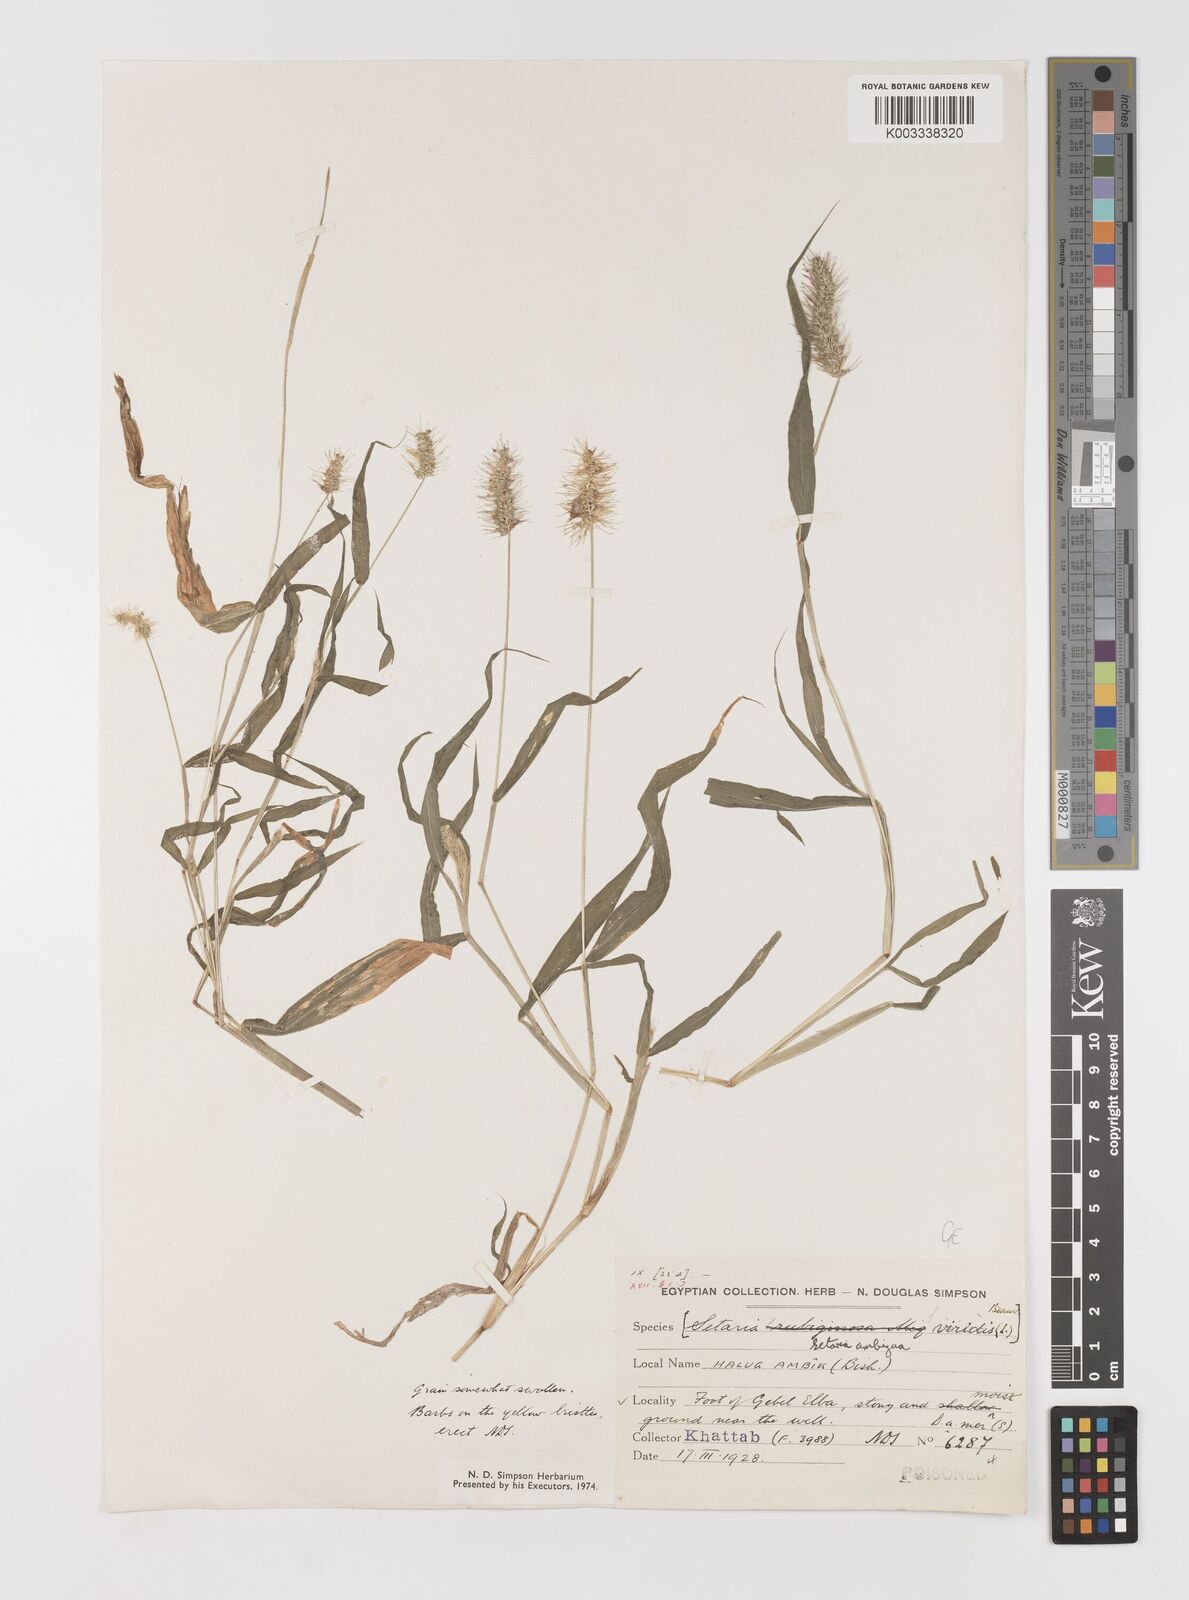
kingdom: Plantae
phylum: Tracheophyta
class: Liliopsida
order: Poales
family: Poaceae
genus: Setaria
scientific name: Setaria verticillata
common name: Hooked bristlegrass
